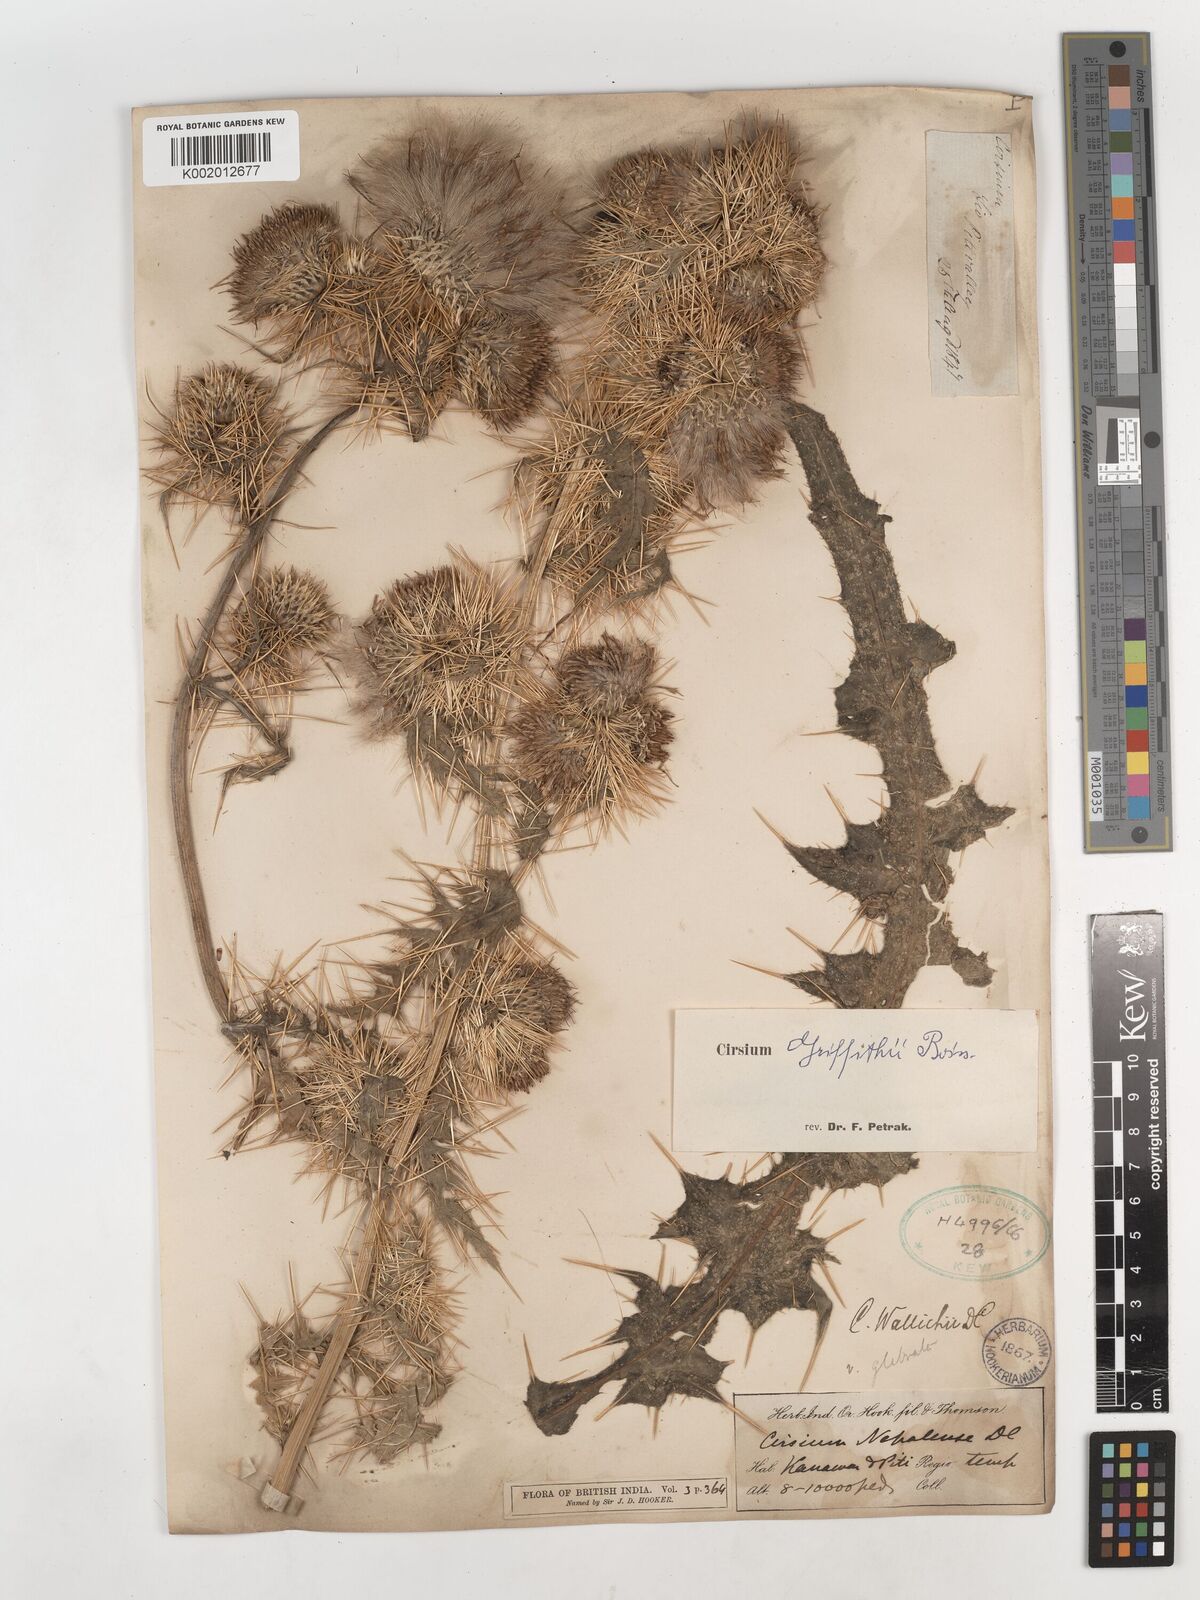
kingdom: Plantae
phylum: Tracheophyta
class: Magnoliopsida
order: Asterales
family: Asteraceae
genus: Lophiolepis
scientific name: Lophiolepis griffithii
